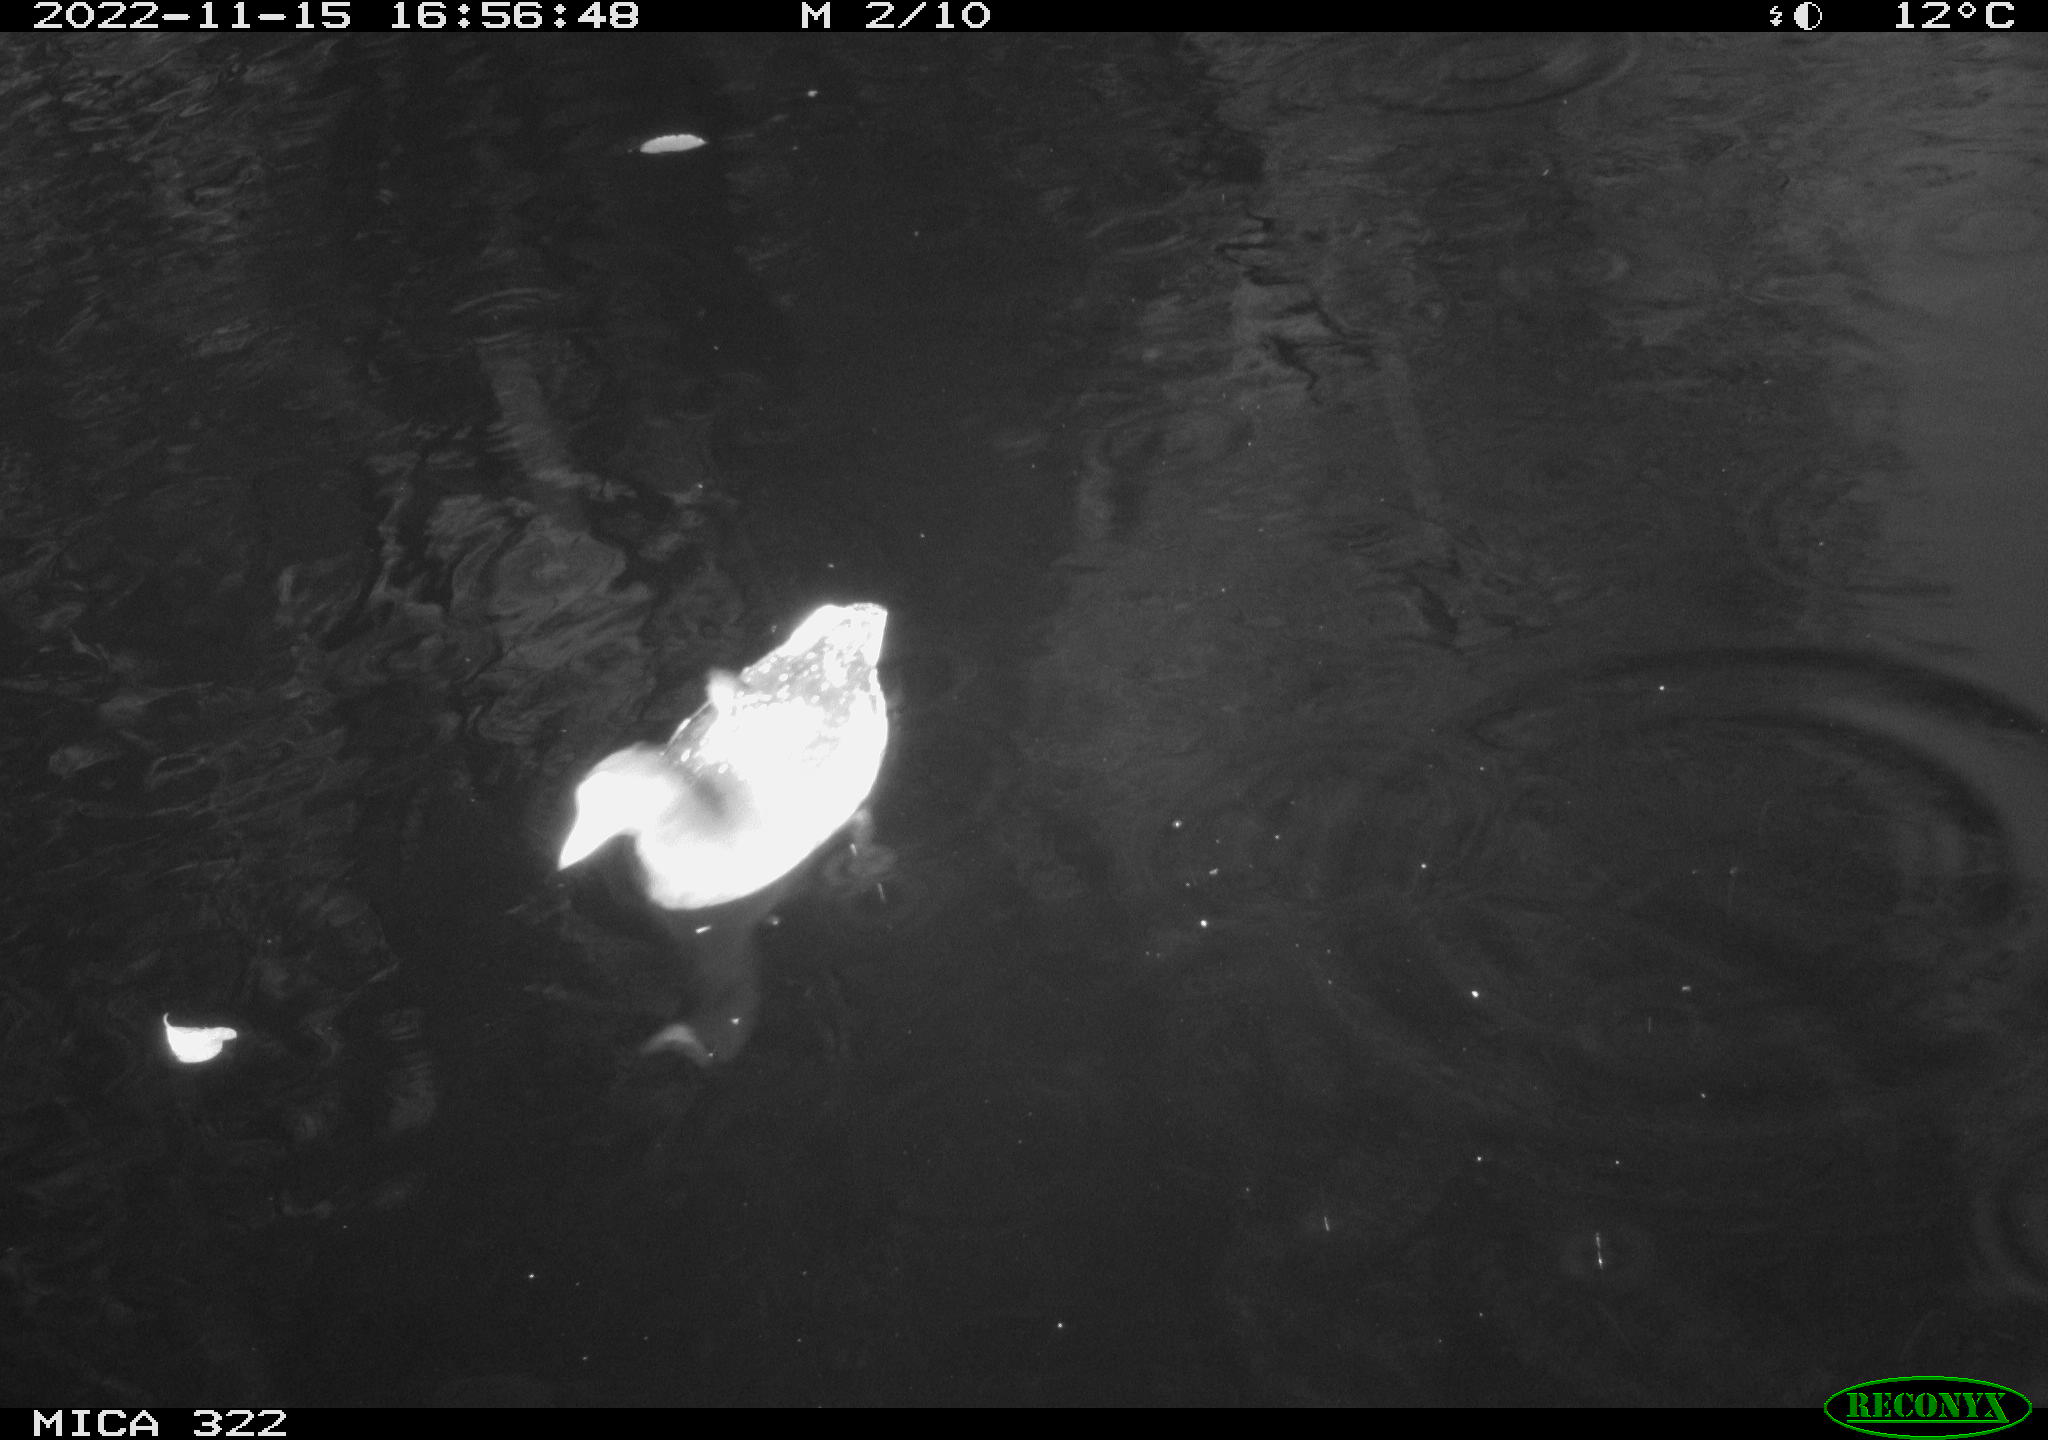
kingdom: Animalia
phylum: Chordata
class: Aves
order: Gruiformes
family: Rallidae
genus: Gallinula
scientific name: Gallinula chloropus
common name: Common moorhen
